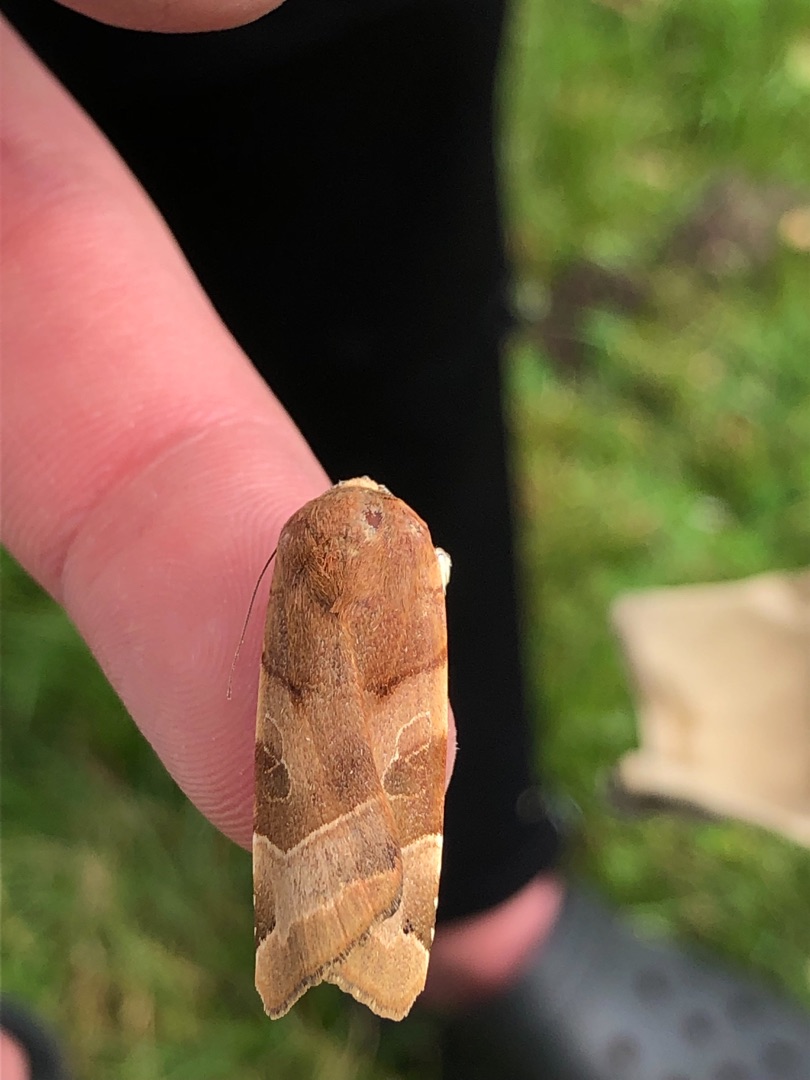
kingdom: Animalia
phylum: Arthropoda
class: Insecta
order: Lepidoptera
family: Noctuidae
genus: Noctua
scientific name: Noctua fimbriata
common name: Gul båndugle
